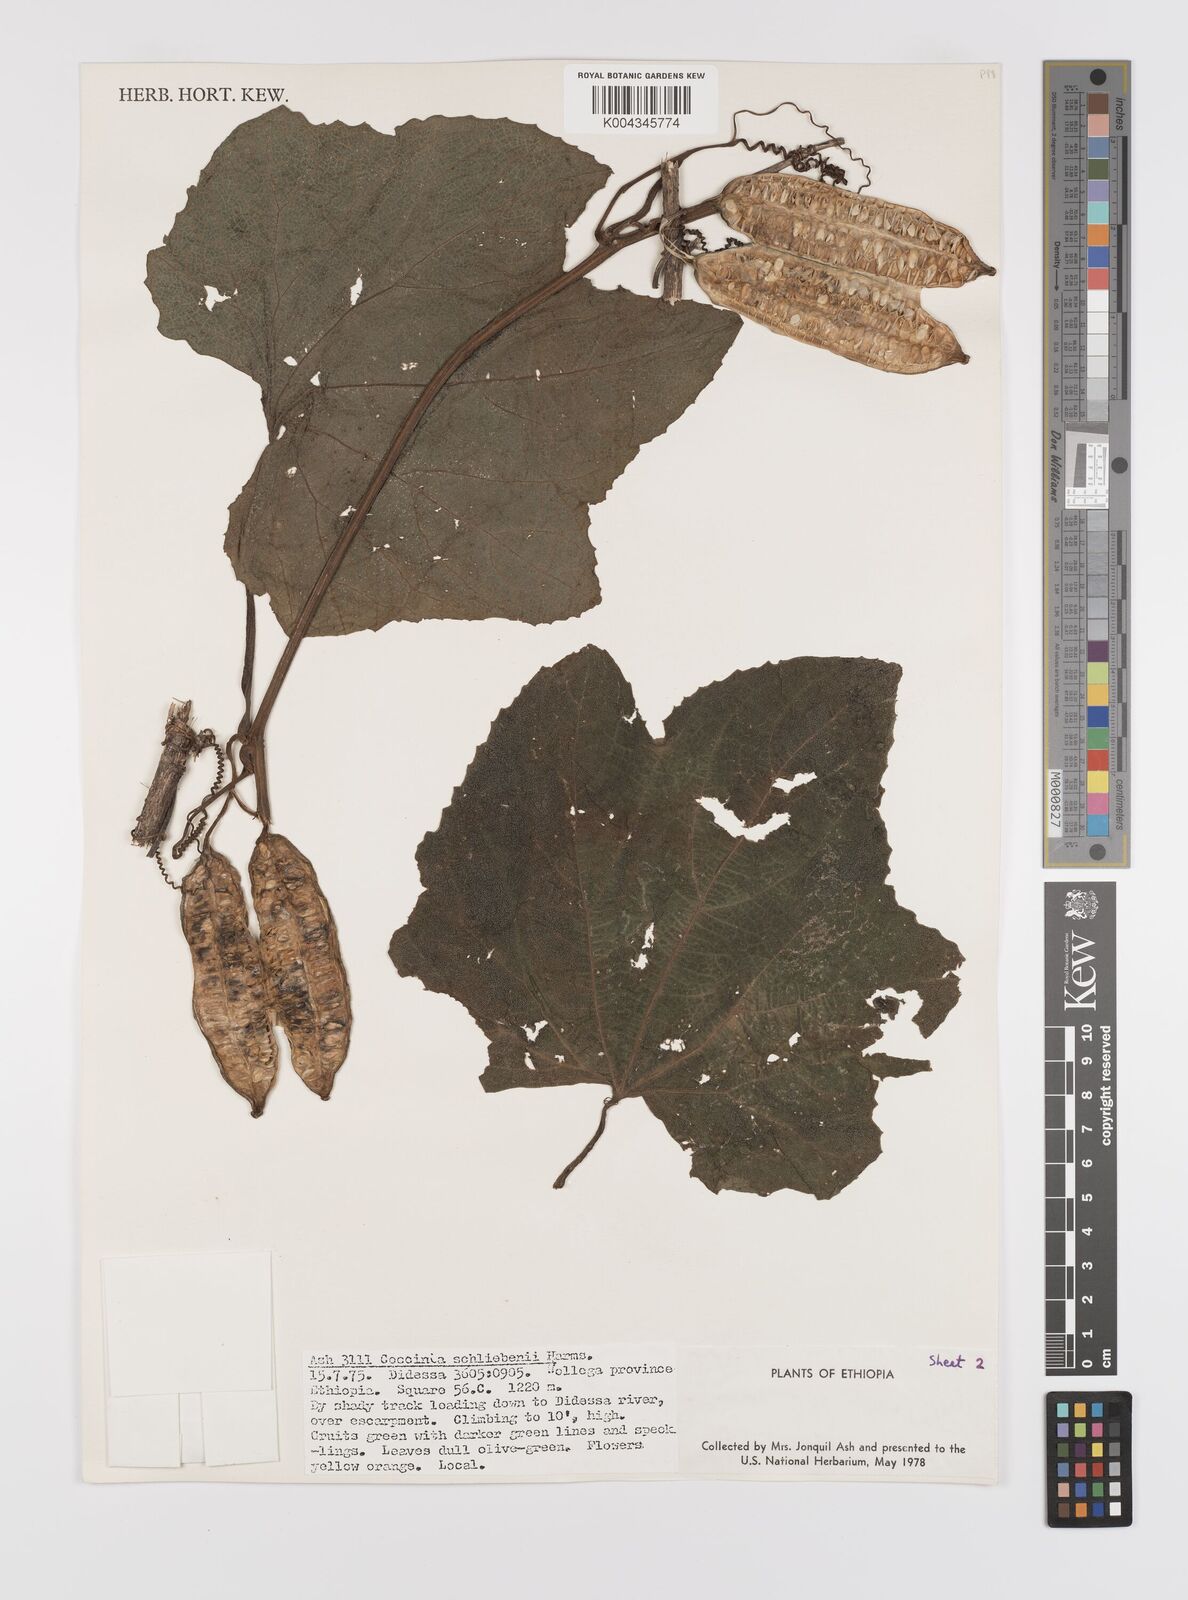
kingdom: Plantae
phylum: Tracheophyta
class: Magnoliopsida
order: Cucurbitales
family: Cucurbitaceae
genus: Coccinia
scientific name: Coccinia schliebenii
